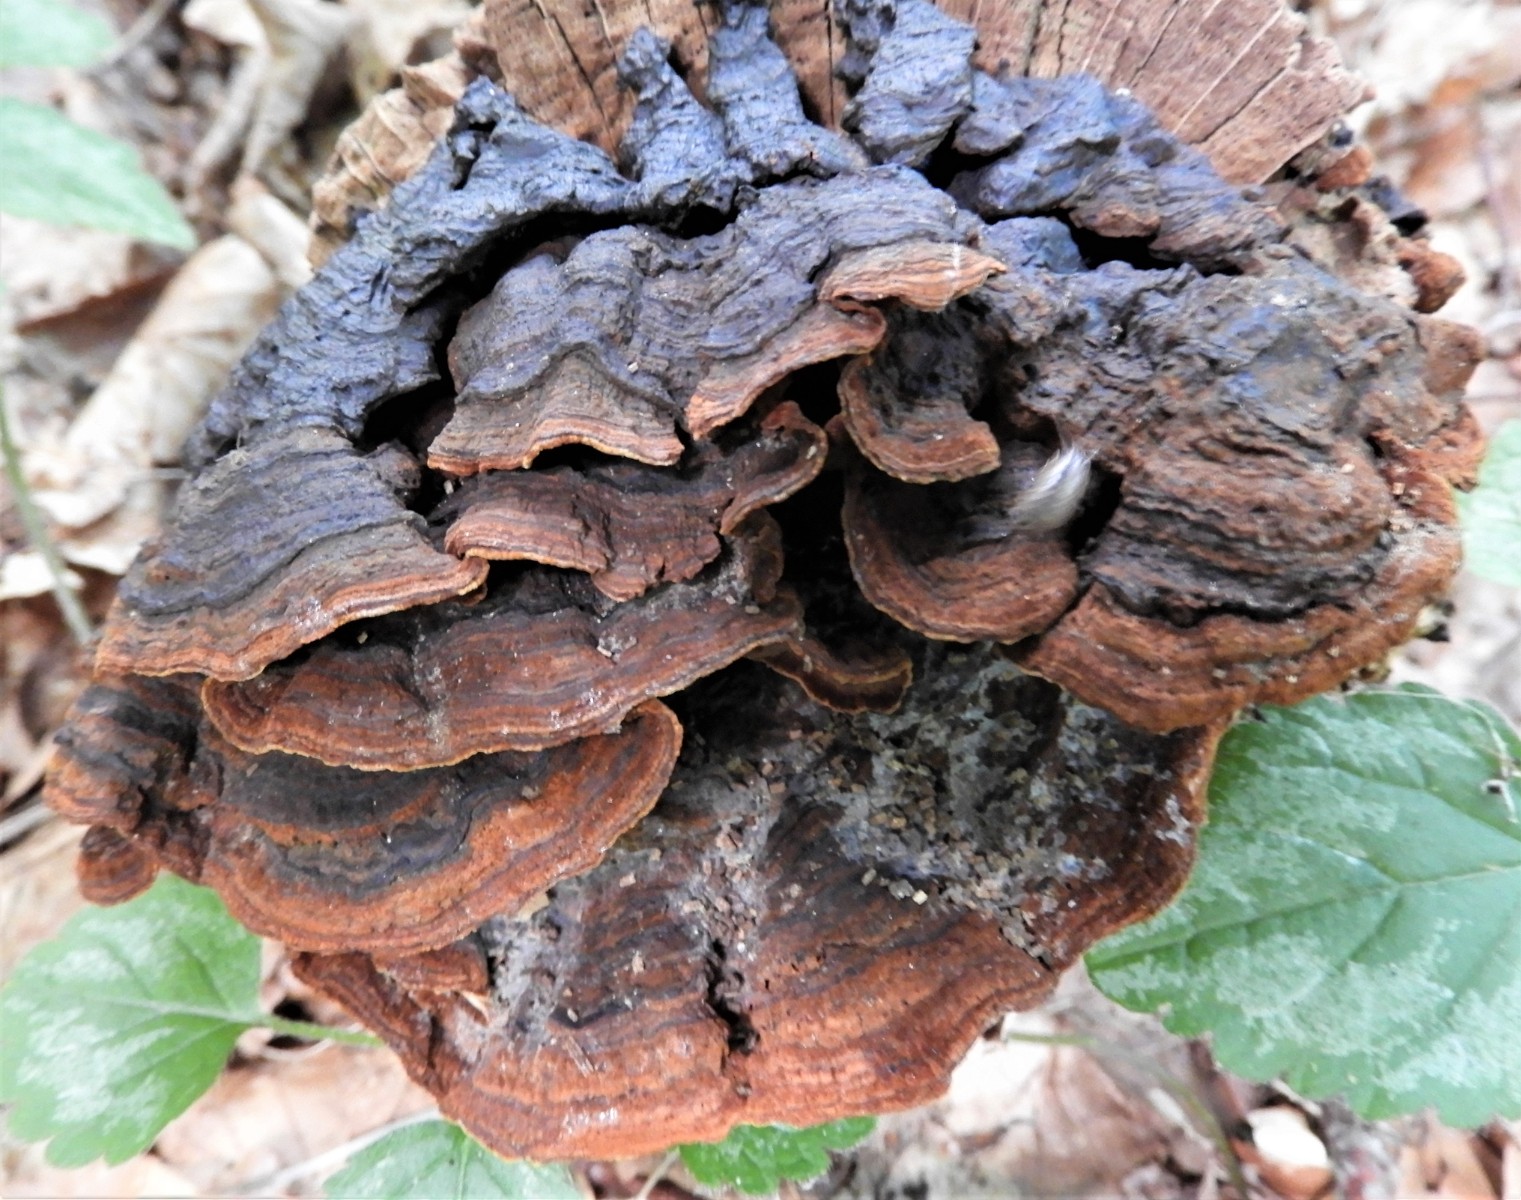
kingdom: Fungi
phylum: Basidiomycota
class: Agaricomycetes
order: Hymenochaetales
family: Hymenochaetaceae
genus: Hymenochaete
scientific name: Hymenochaete rubiginosa
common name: stiv ruslædersvamp
